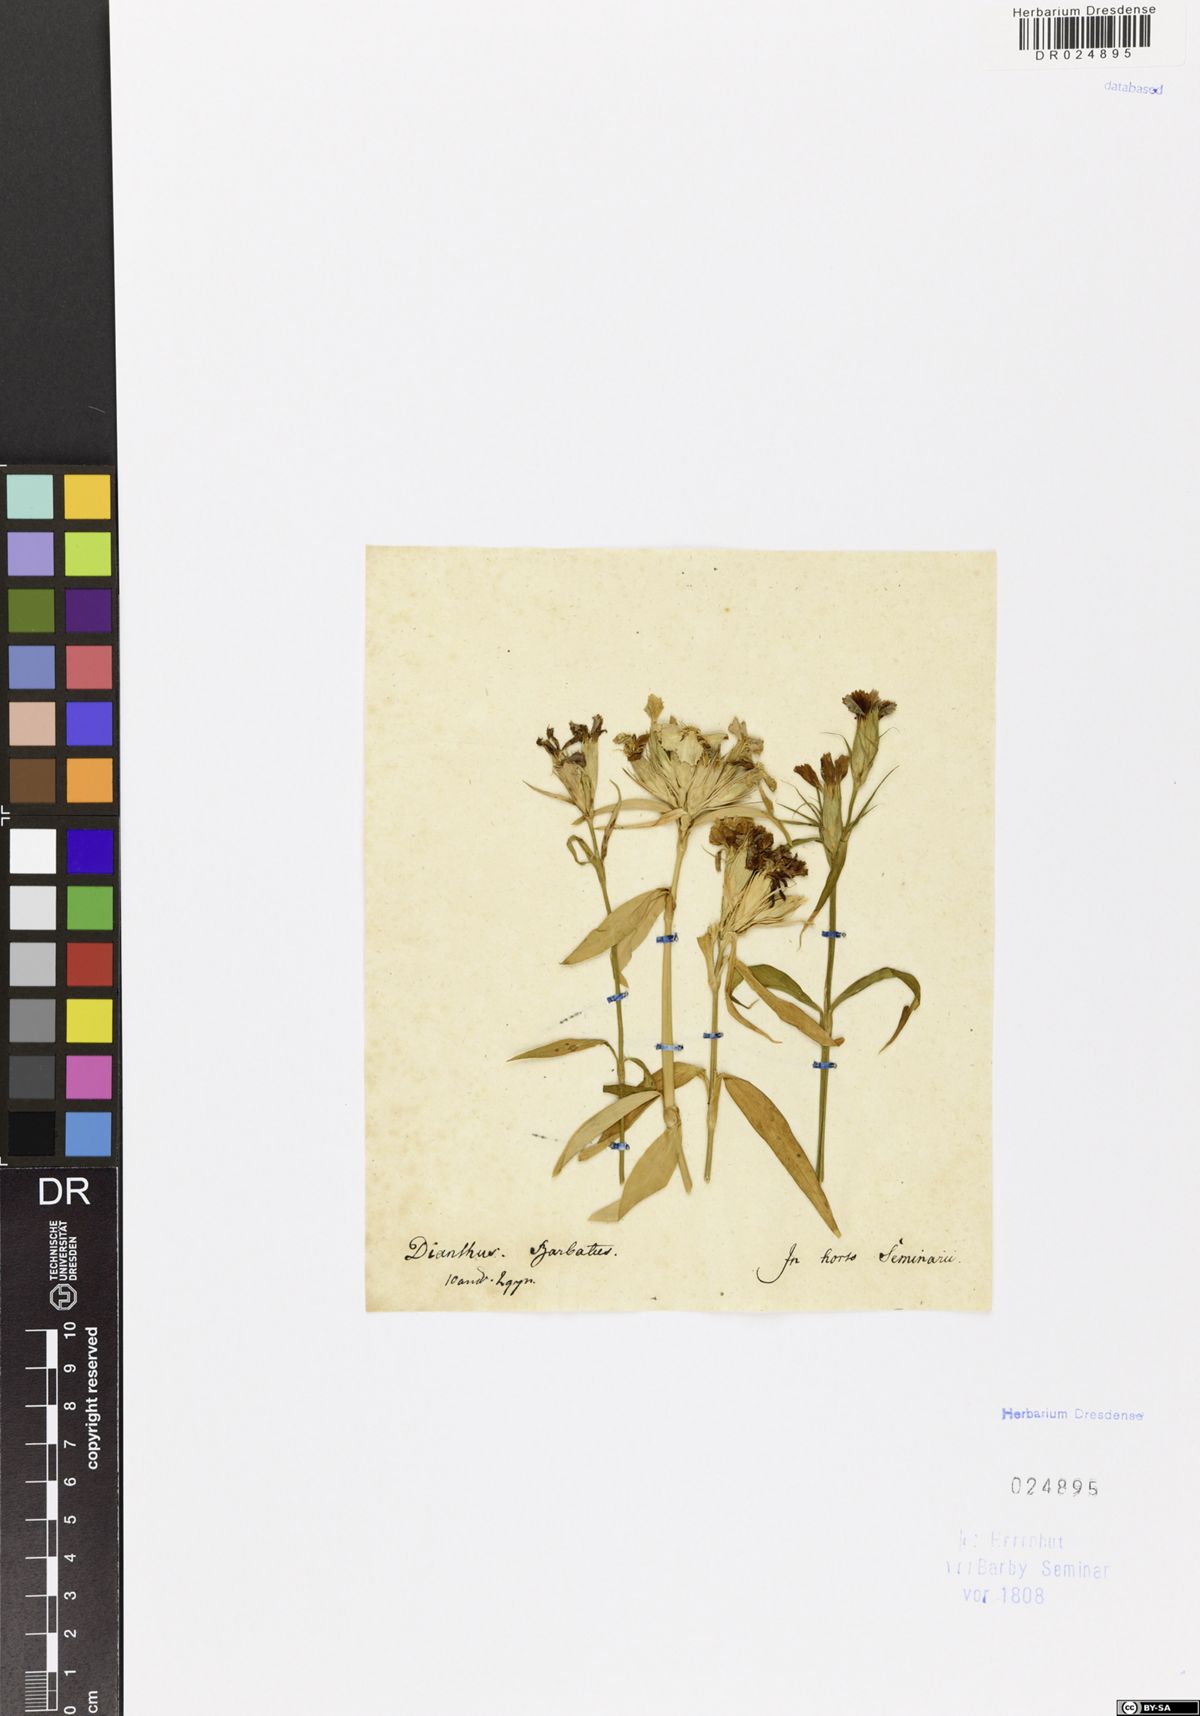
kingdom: Plantae
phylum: Tracheophyta
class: Magnoliopsida
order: Caryophyllales
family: Caryophyllaceae
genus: Dianthus
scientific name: Dianthus barbatus
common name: Sweet-william
